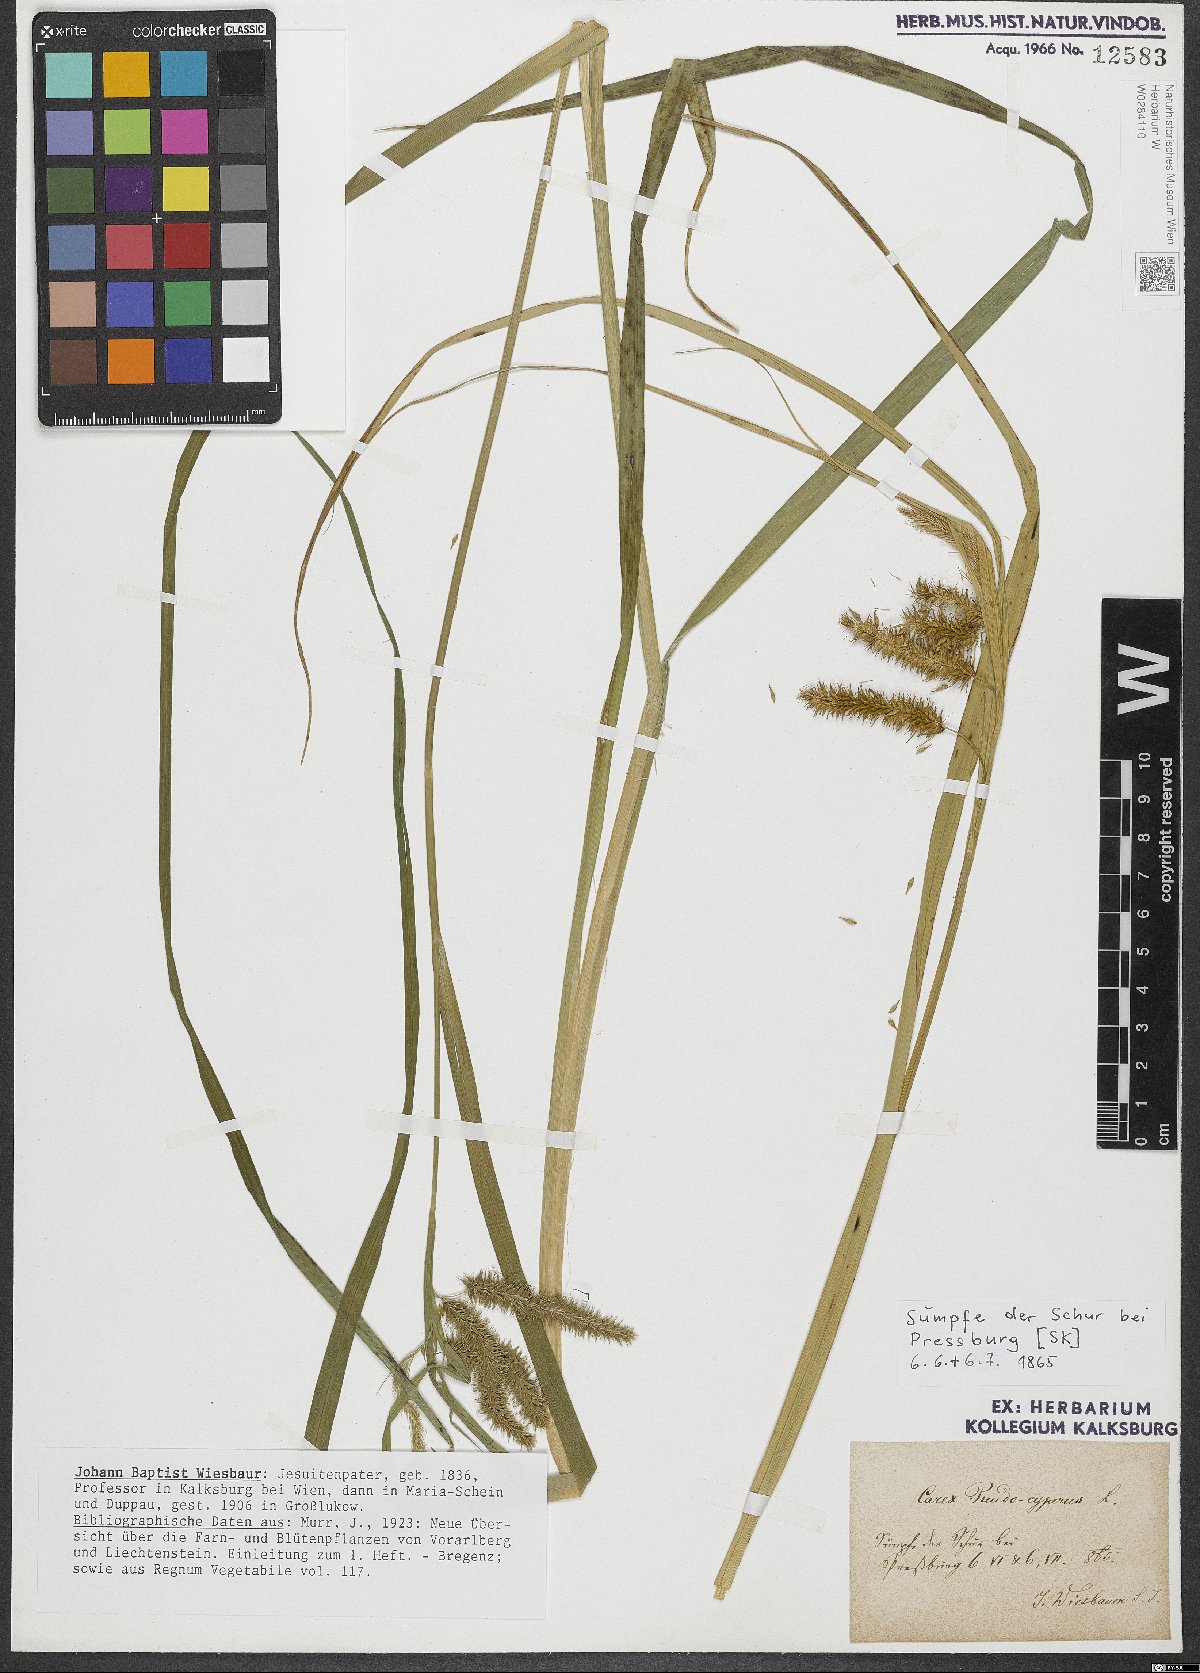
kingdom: Plantae
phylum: Tracheophyta
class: Liliopsida
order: Poales
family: Cyperaceae
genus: Carex
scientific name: Carex pseudocyperus
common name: Cyperus sedge
